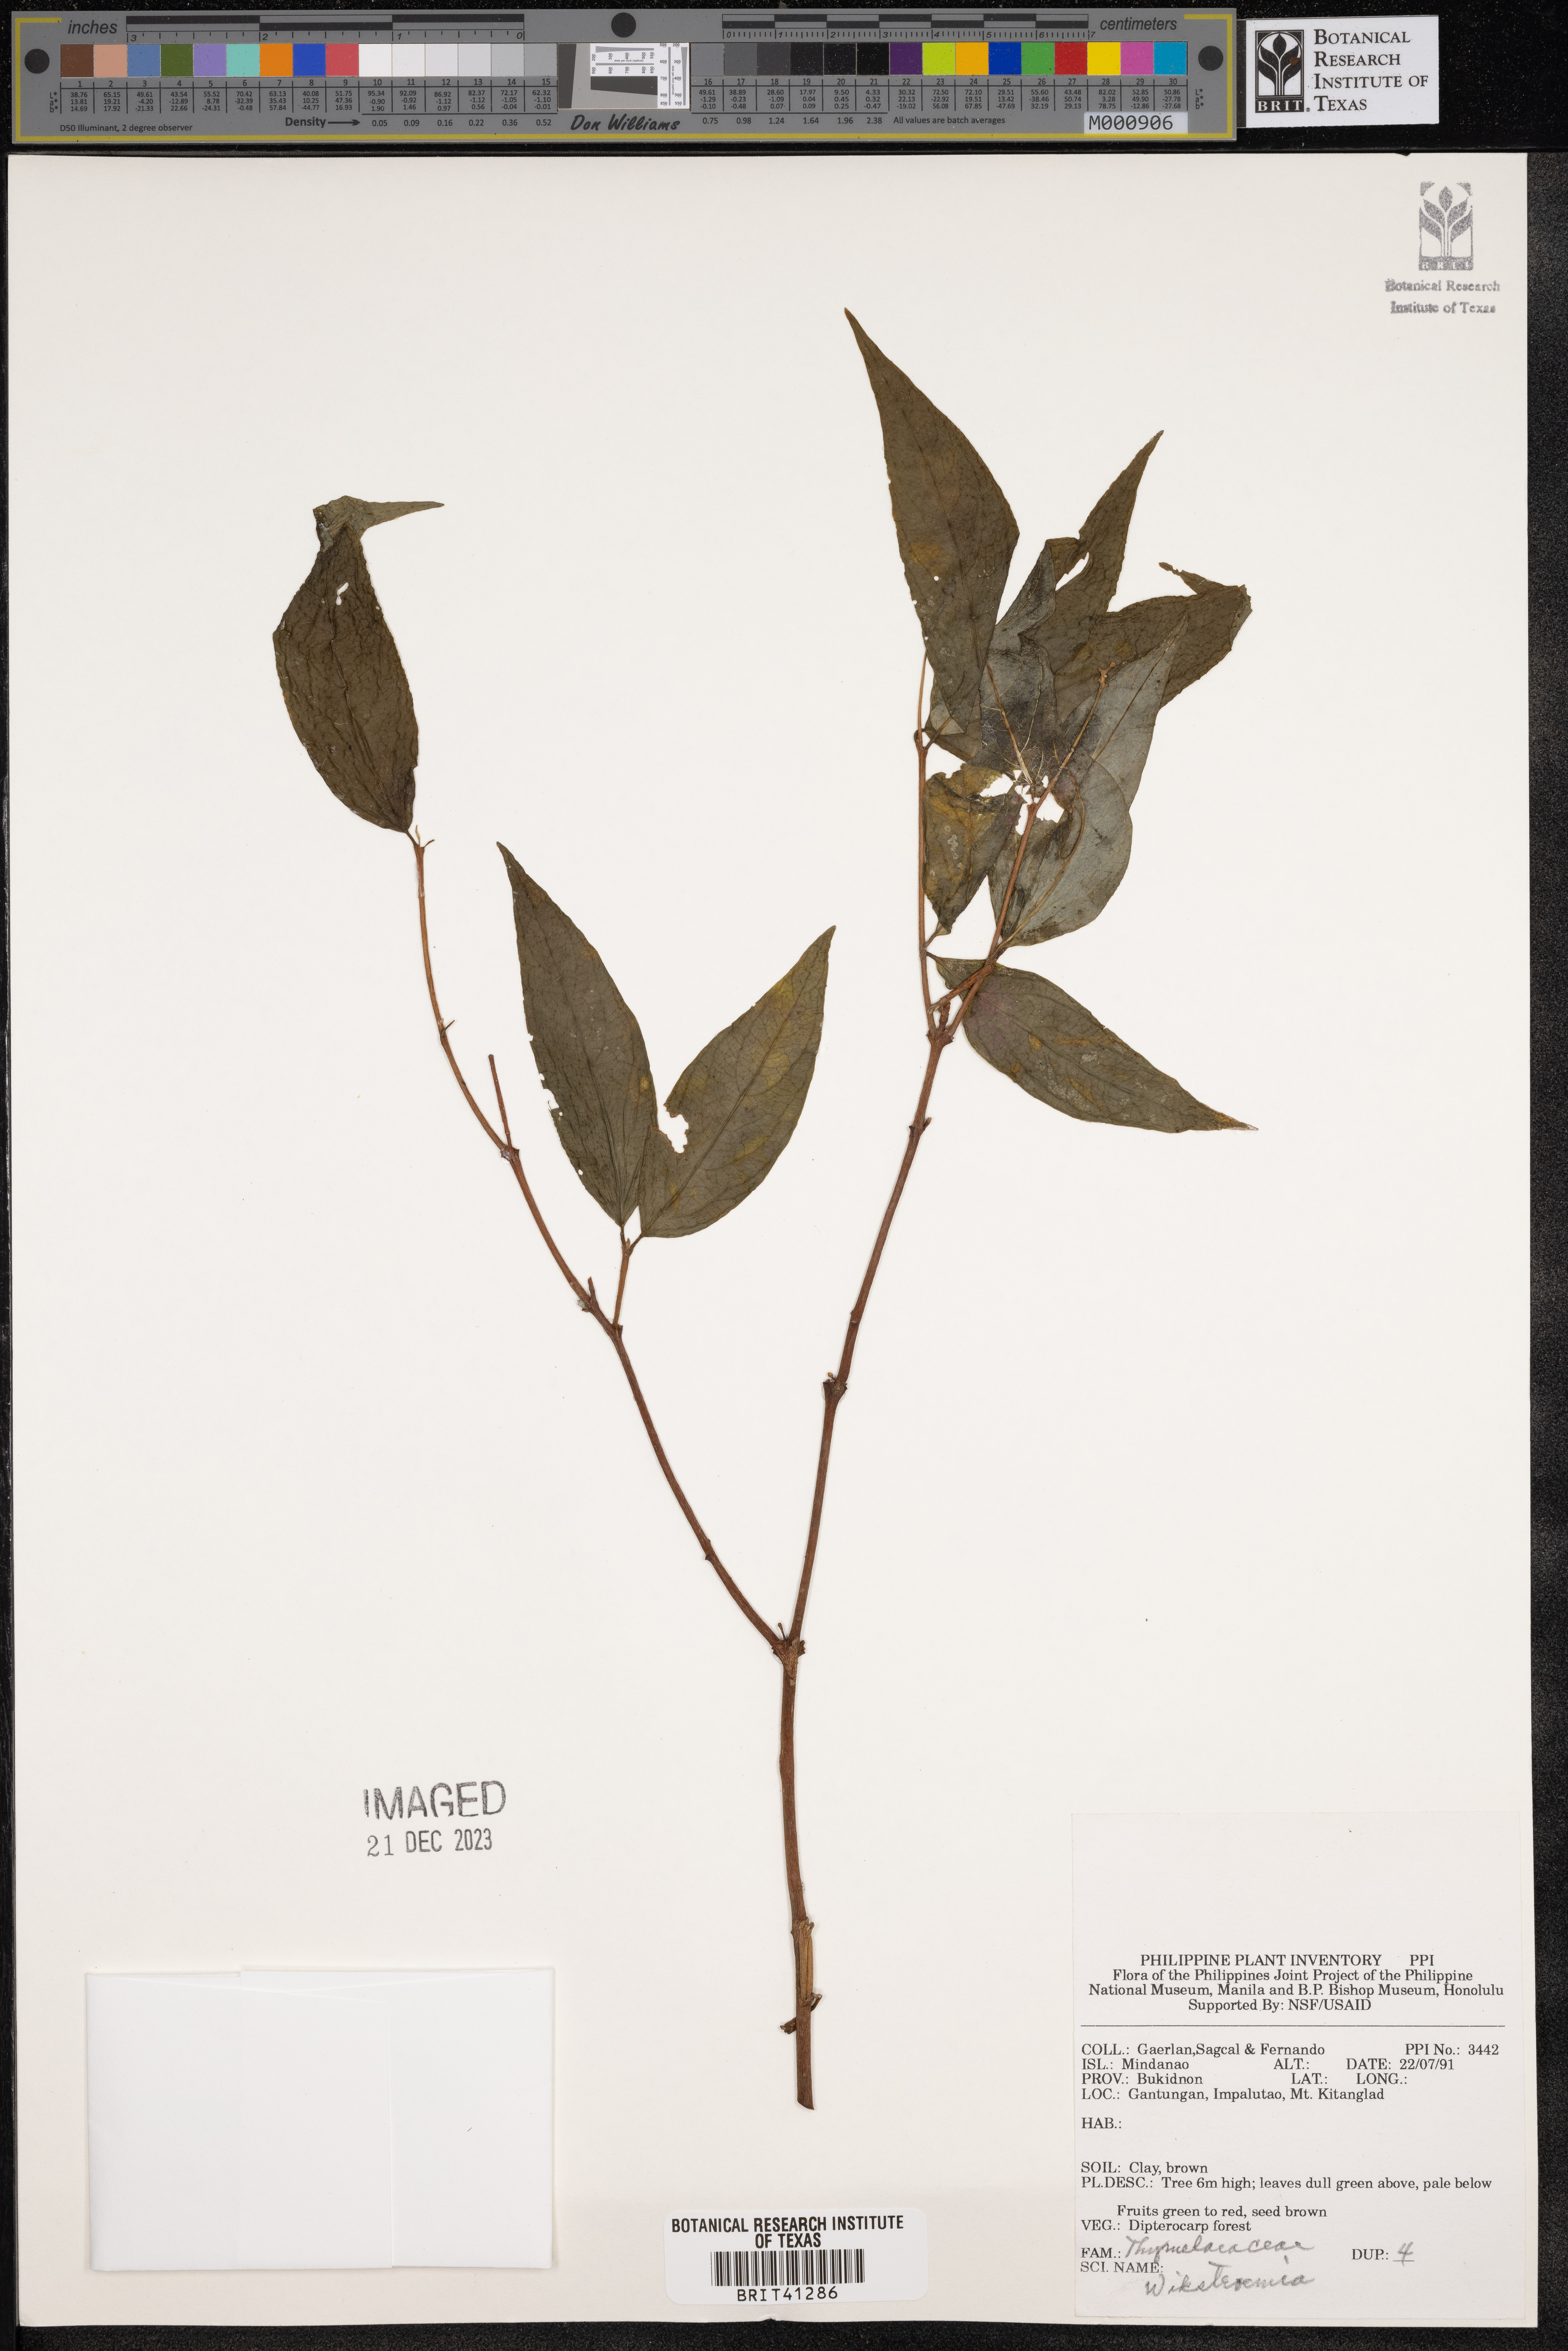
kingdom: Plantae
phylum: Tracheophyta
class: Magnoliopsida
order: Malvales
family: Thymelaeaceae
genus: Wikstroemia
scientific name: Wikstroemia
